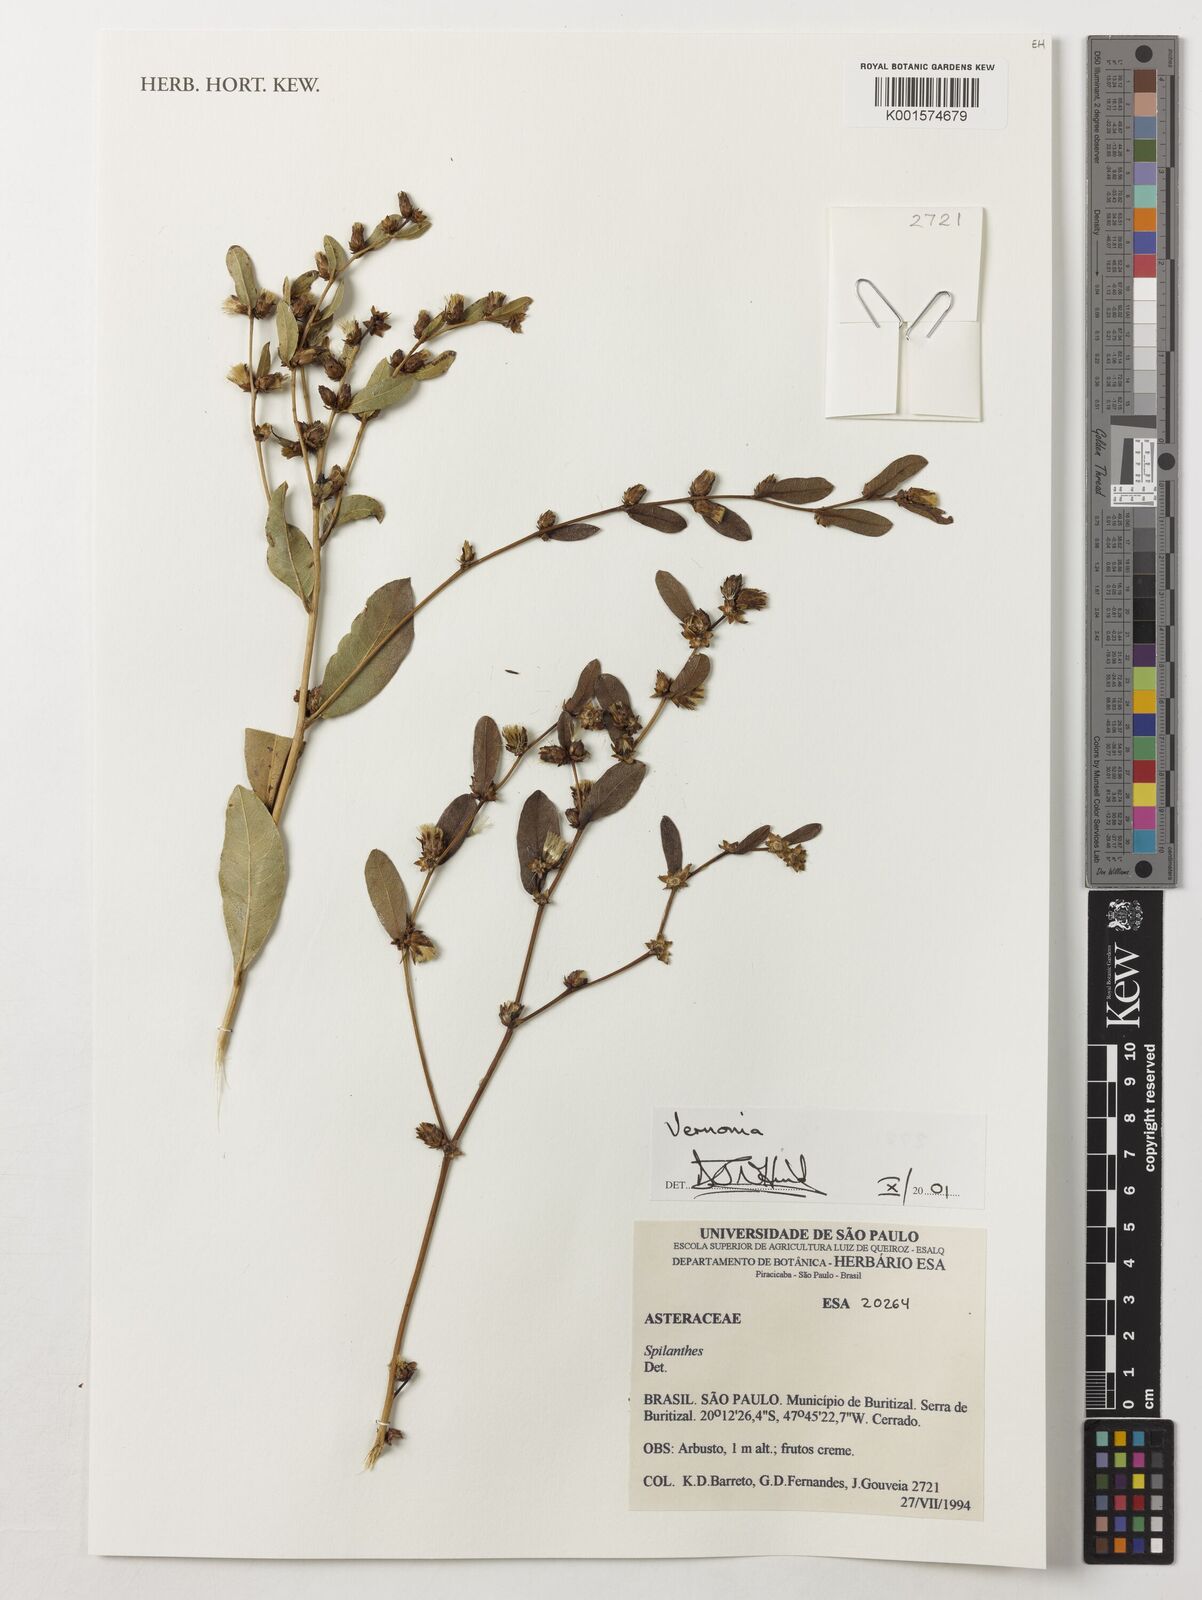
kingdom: Plantae
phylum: Tracheophyta
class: Magnoliopsida
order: Asterales
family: Asteraceae
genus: Vernonia
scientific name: Vernonia
